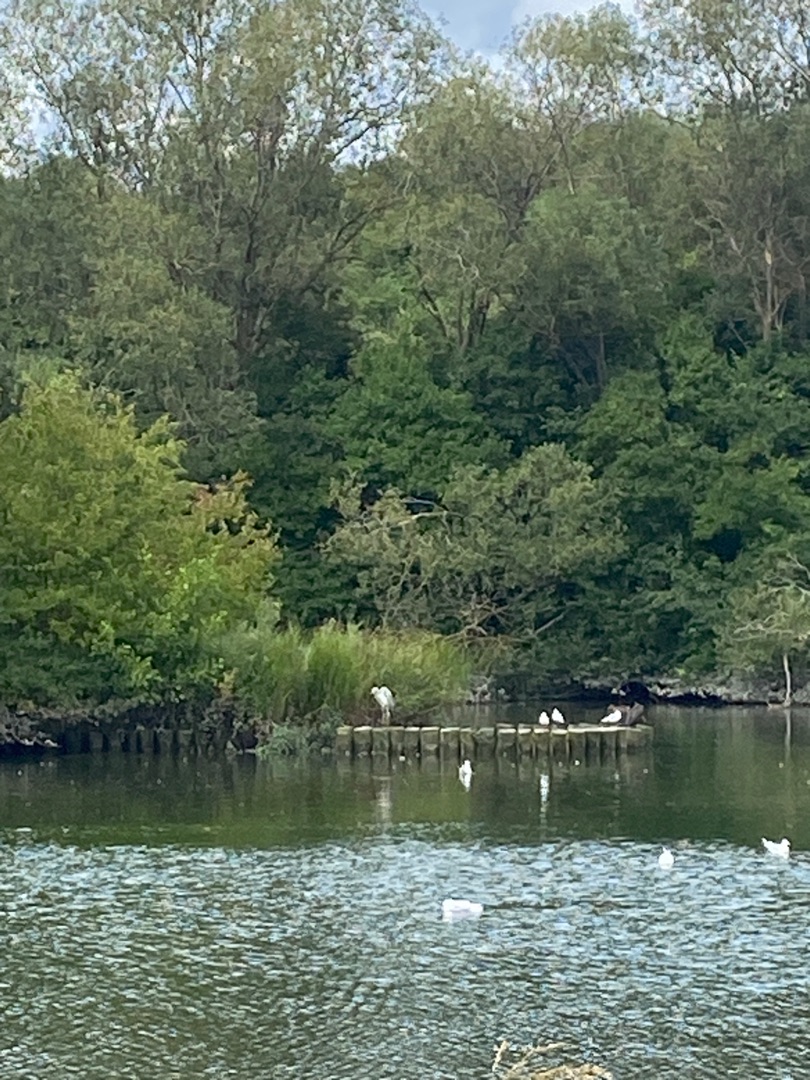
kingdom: Animalia
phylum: Chordata
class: Aves
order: Pelecaniformes
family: Ardeidae
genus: Ardea
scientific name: Ardea alba
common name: Sølvhejre
